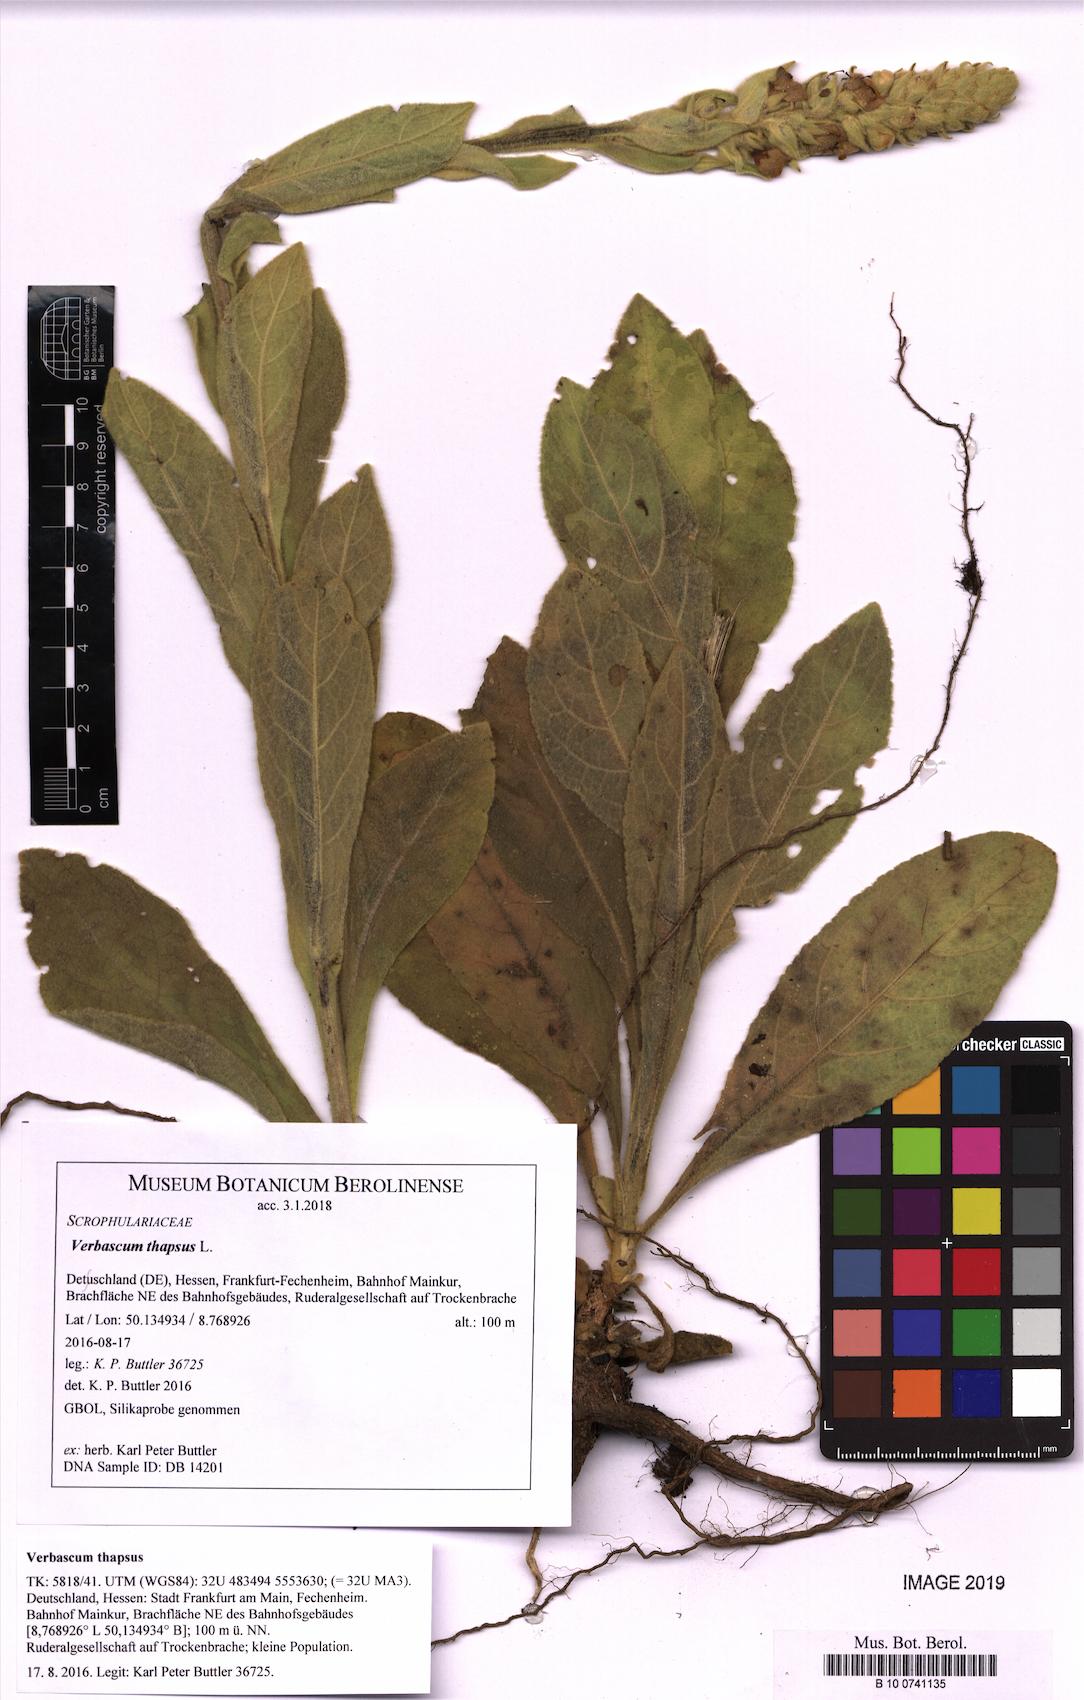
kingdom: Plantae
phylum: Tracheophyta
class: Magnoliopsida
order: Lamiales
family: Scrophulariaceae
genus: Verbascum
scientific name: Verbascum thapsus
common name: Common mullein
